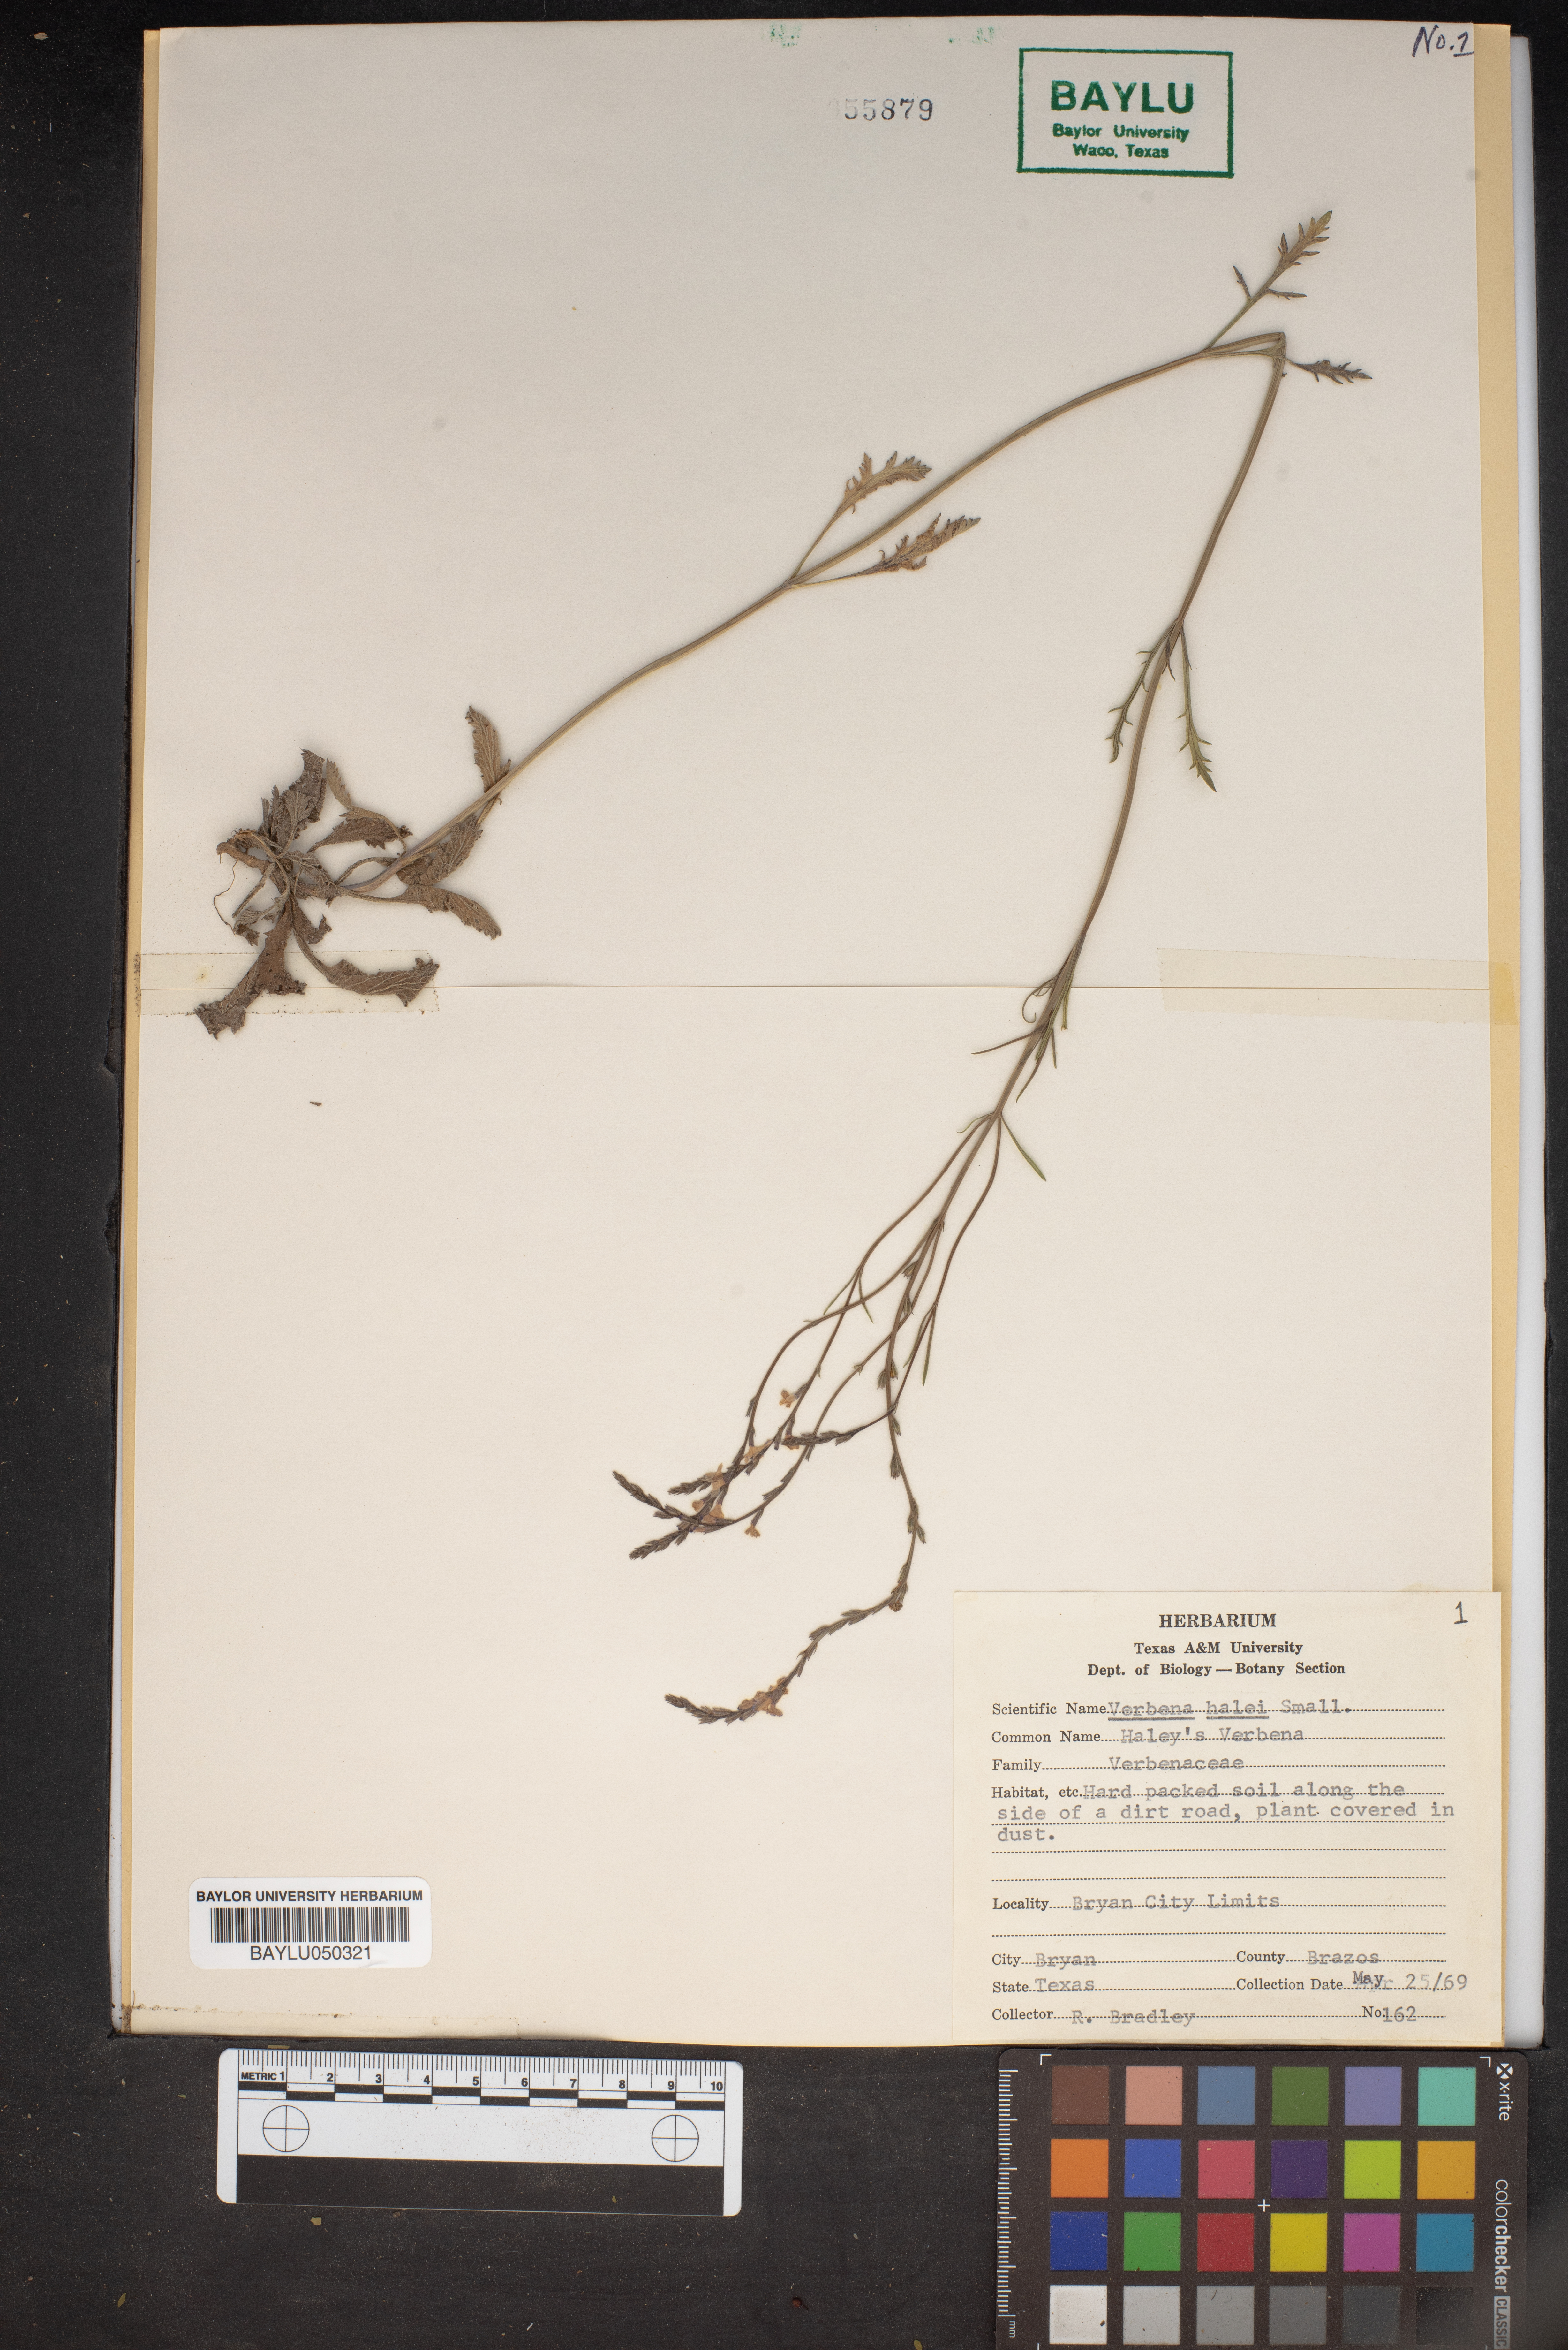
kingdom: Plantae
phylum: Tracheophyta
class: Magnoliopsida
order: Lamiales
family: Verbenaceae
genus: Verbena
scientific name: Verbena halei
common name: Texas vervain
